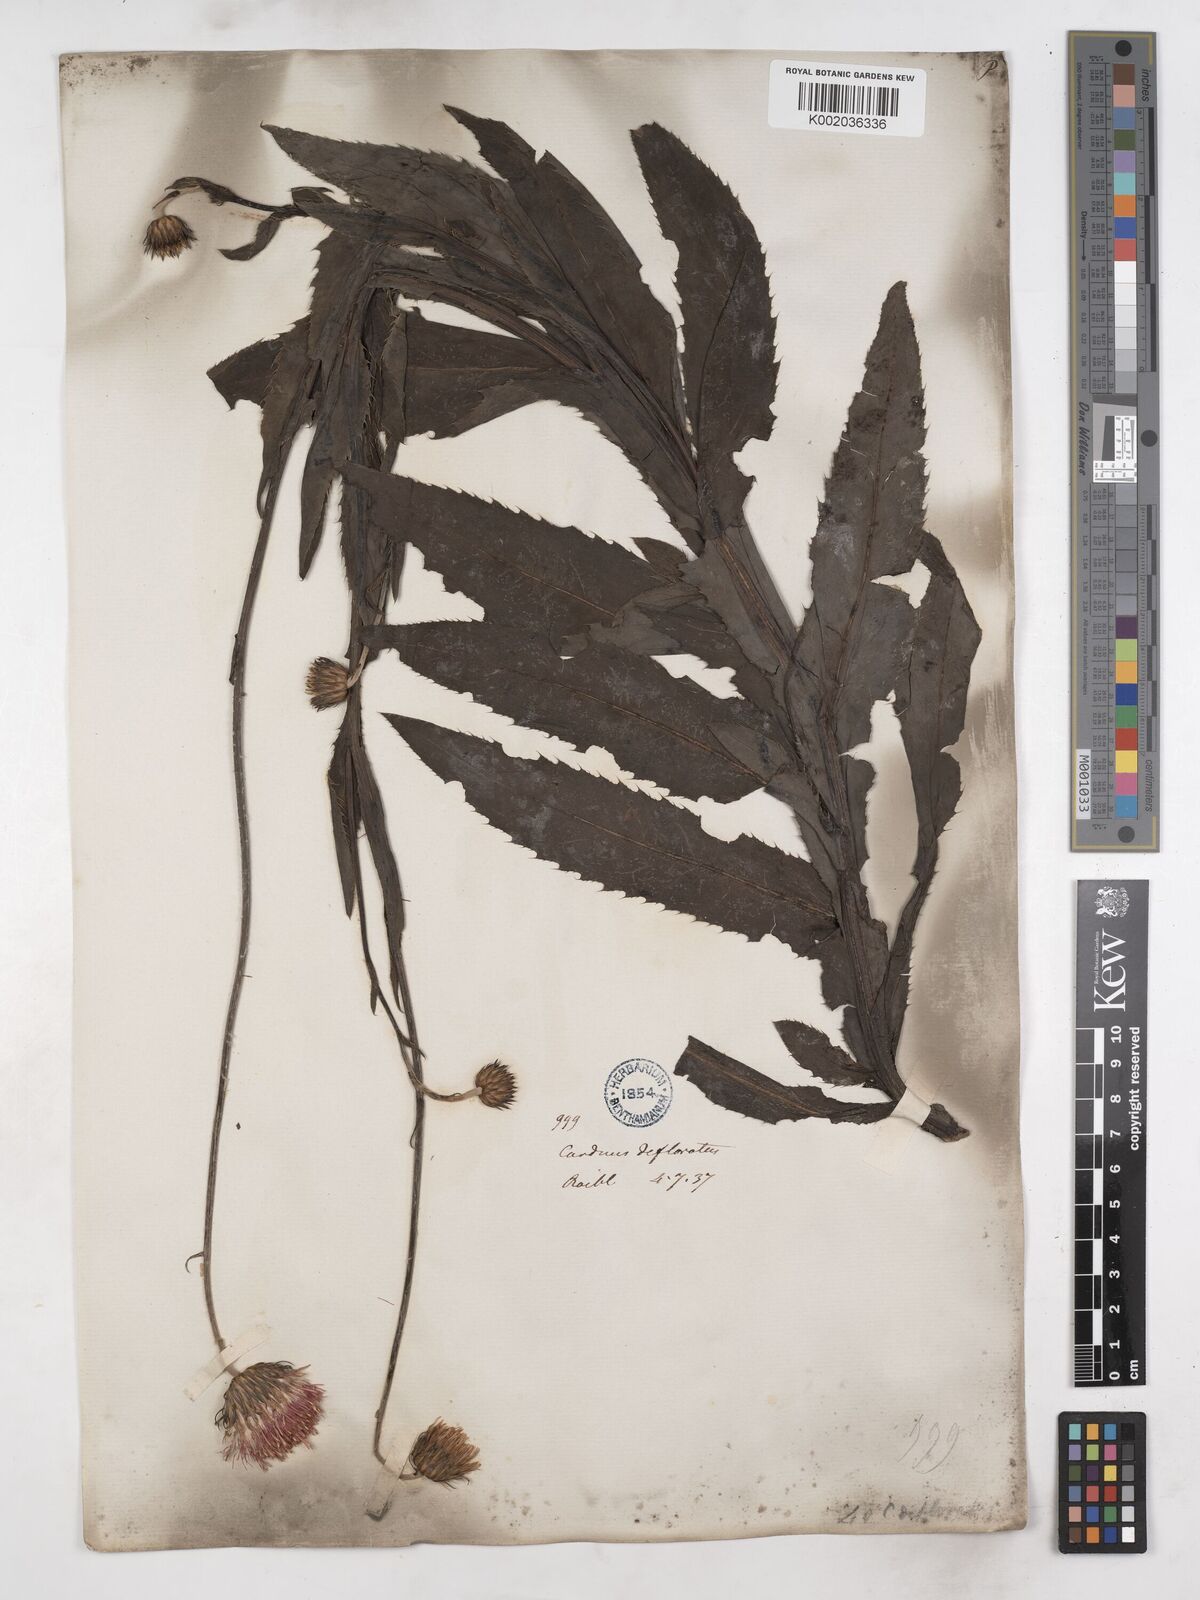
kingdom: Plantae
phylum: Tracheophyta
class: Magnoliopsida
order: Asterales
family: Asteraceae
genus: Carduus
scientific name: Carduus defloratus
